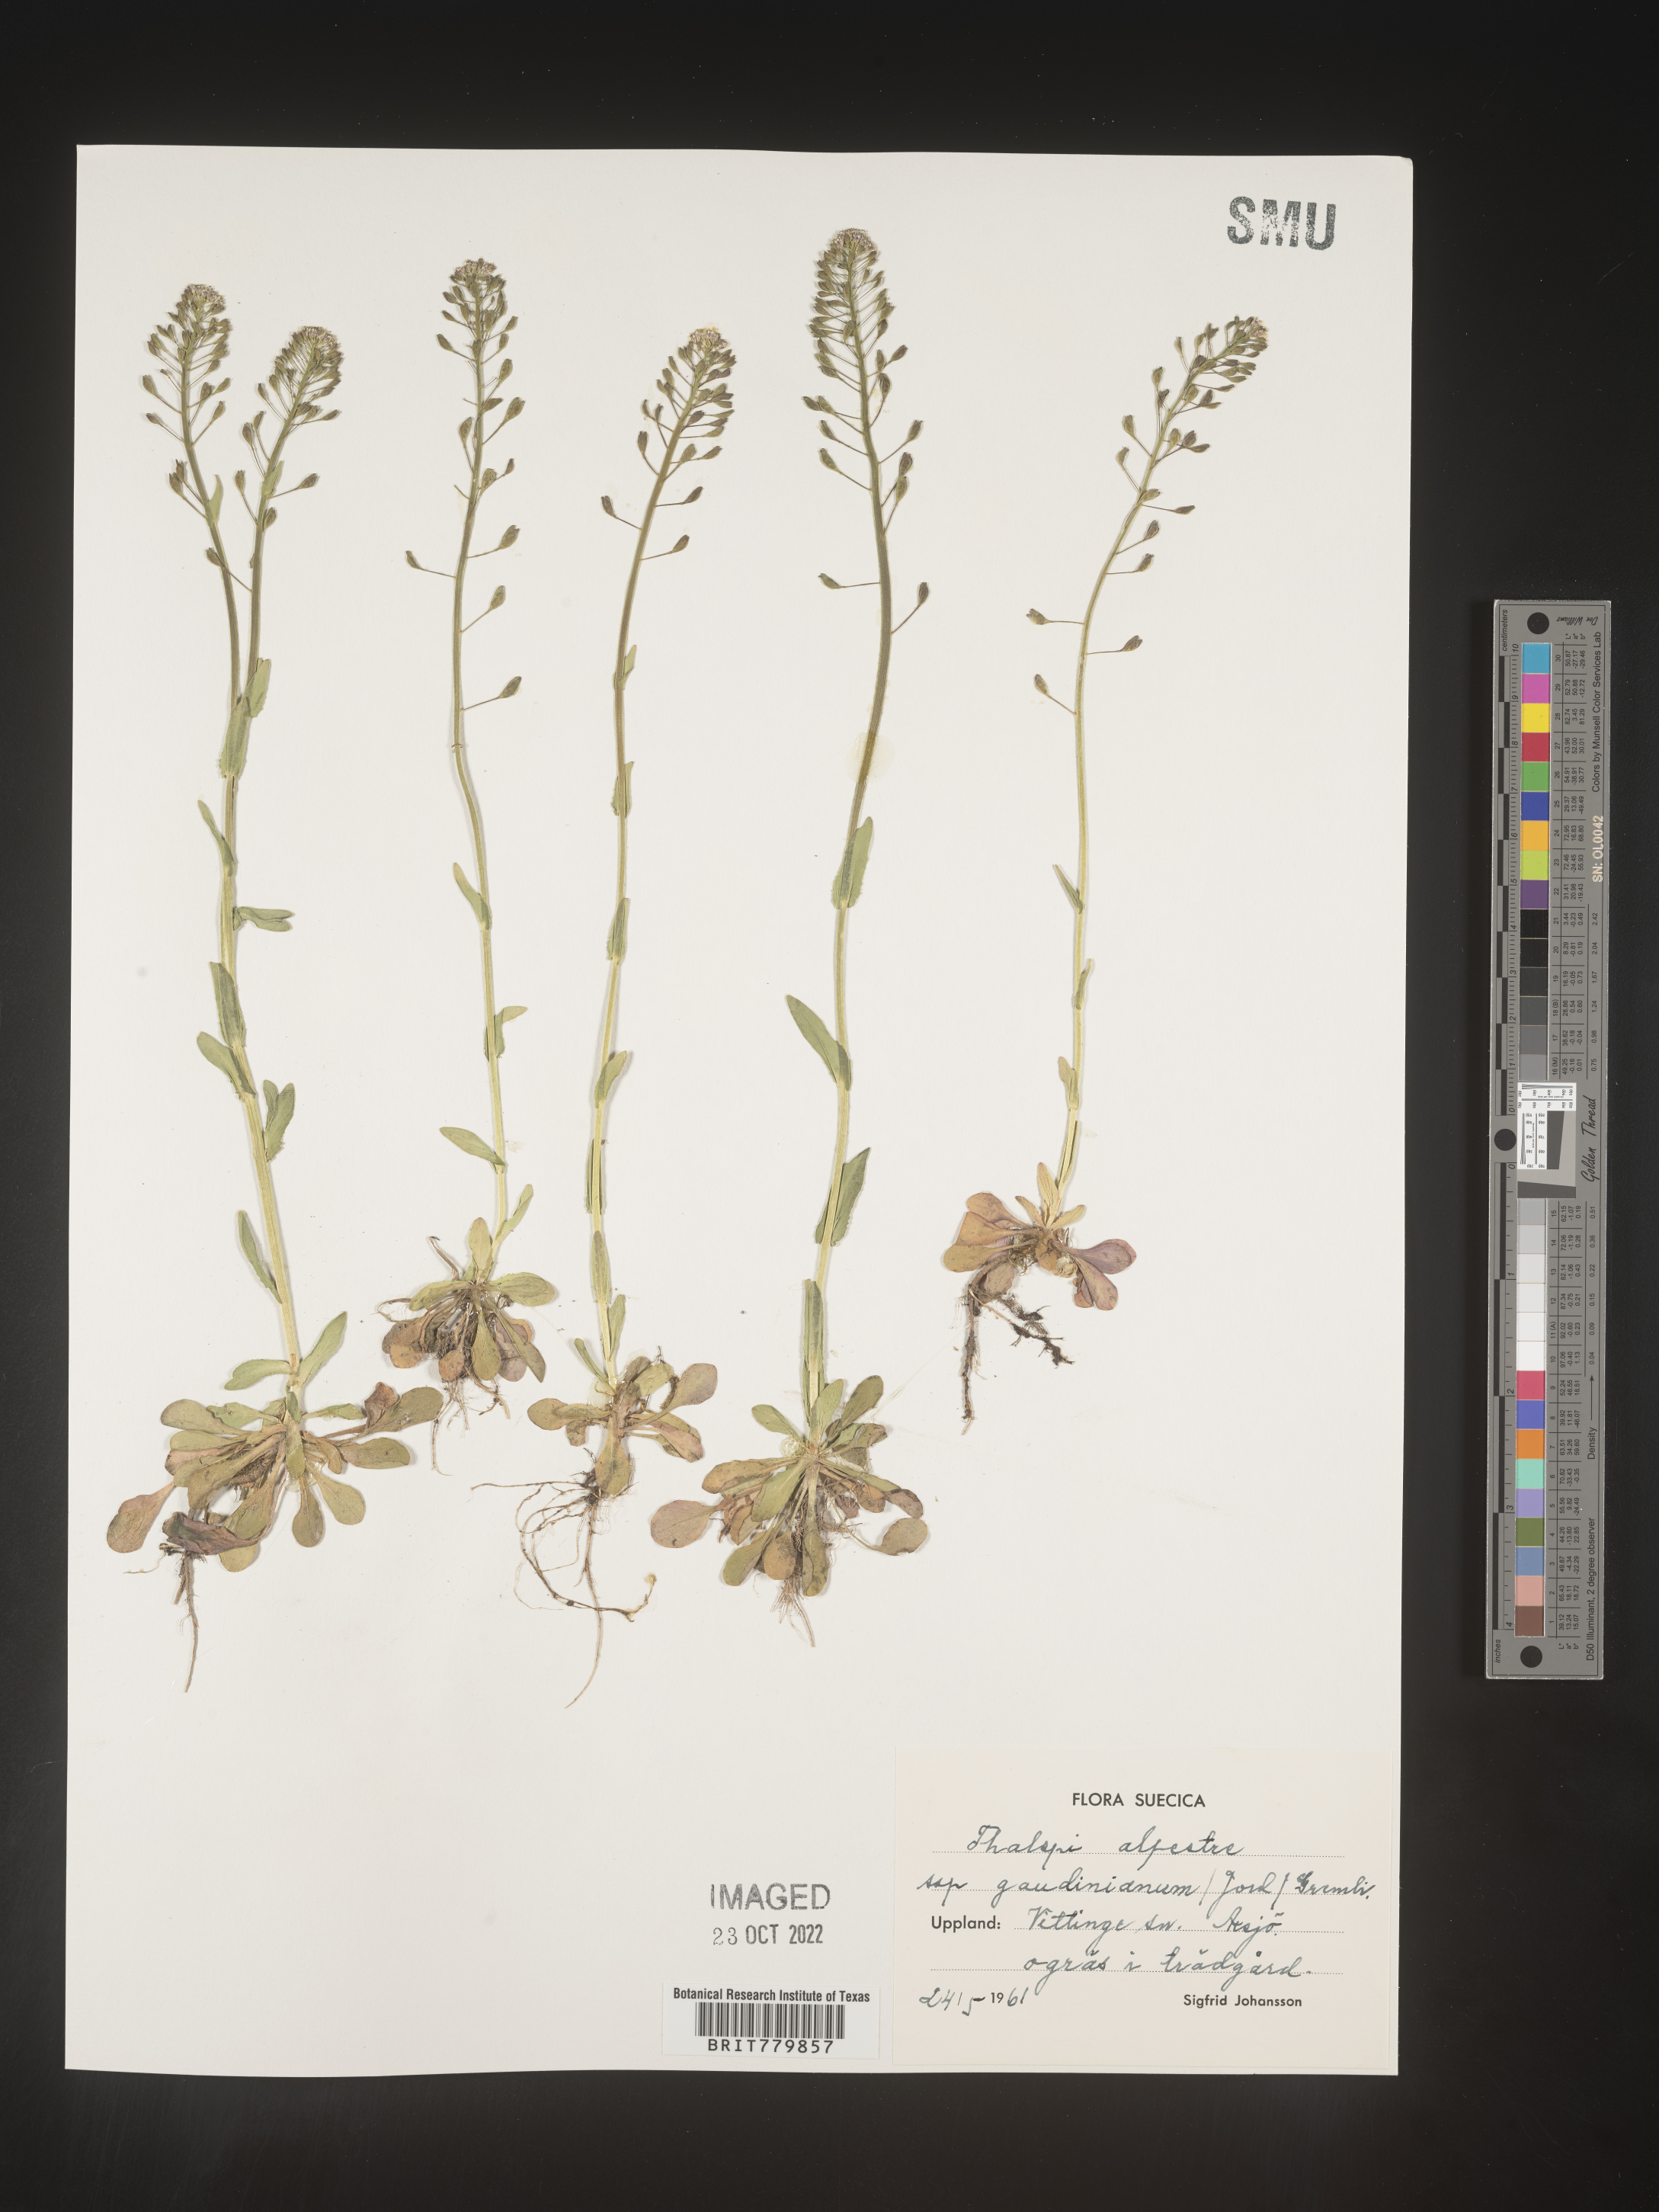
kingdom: Plantae
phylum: Tracheophyta
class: Magnoliopsida
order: Brassicales
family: Brassicaceae
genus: Thlaspi
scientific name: Thlaspi
